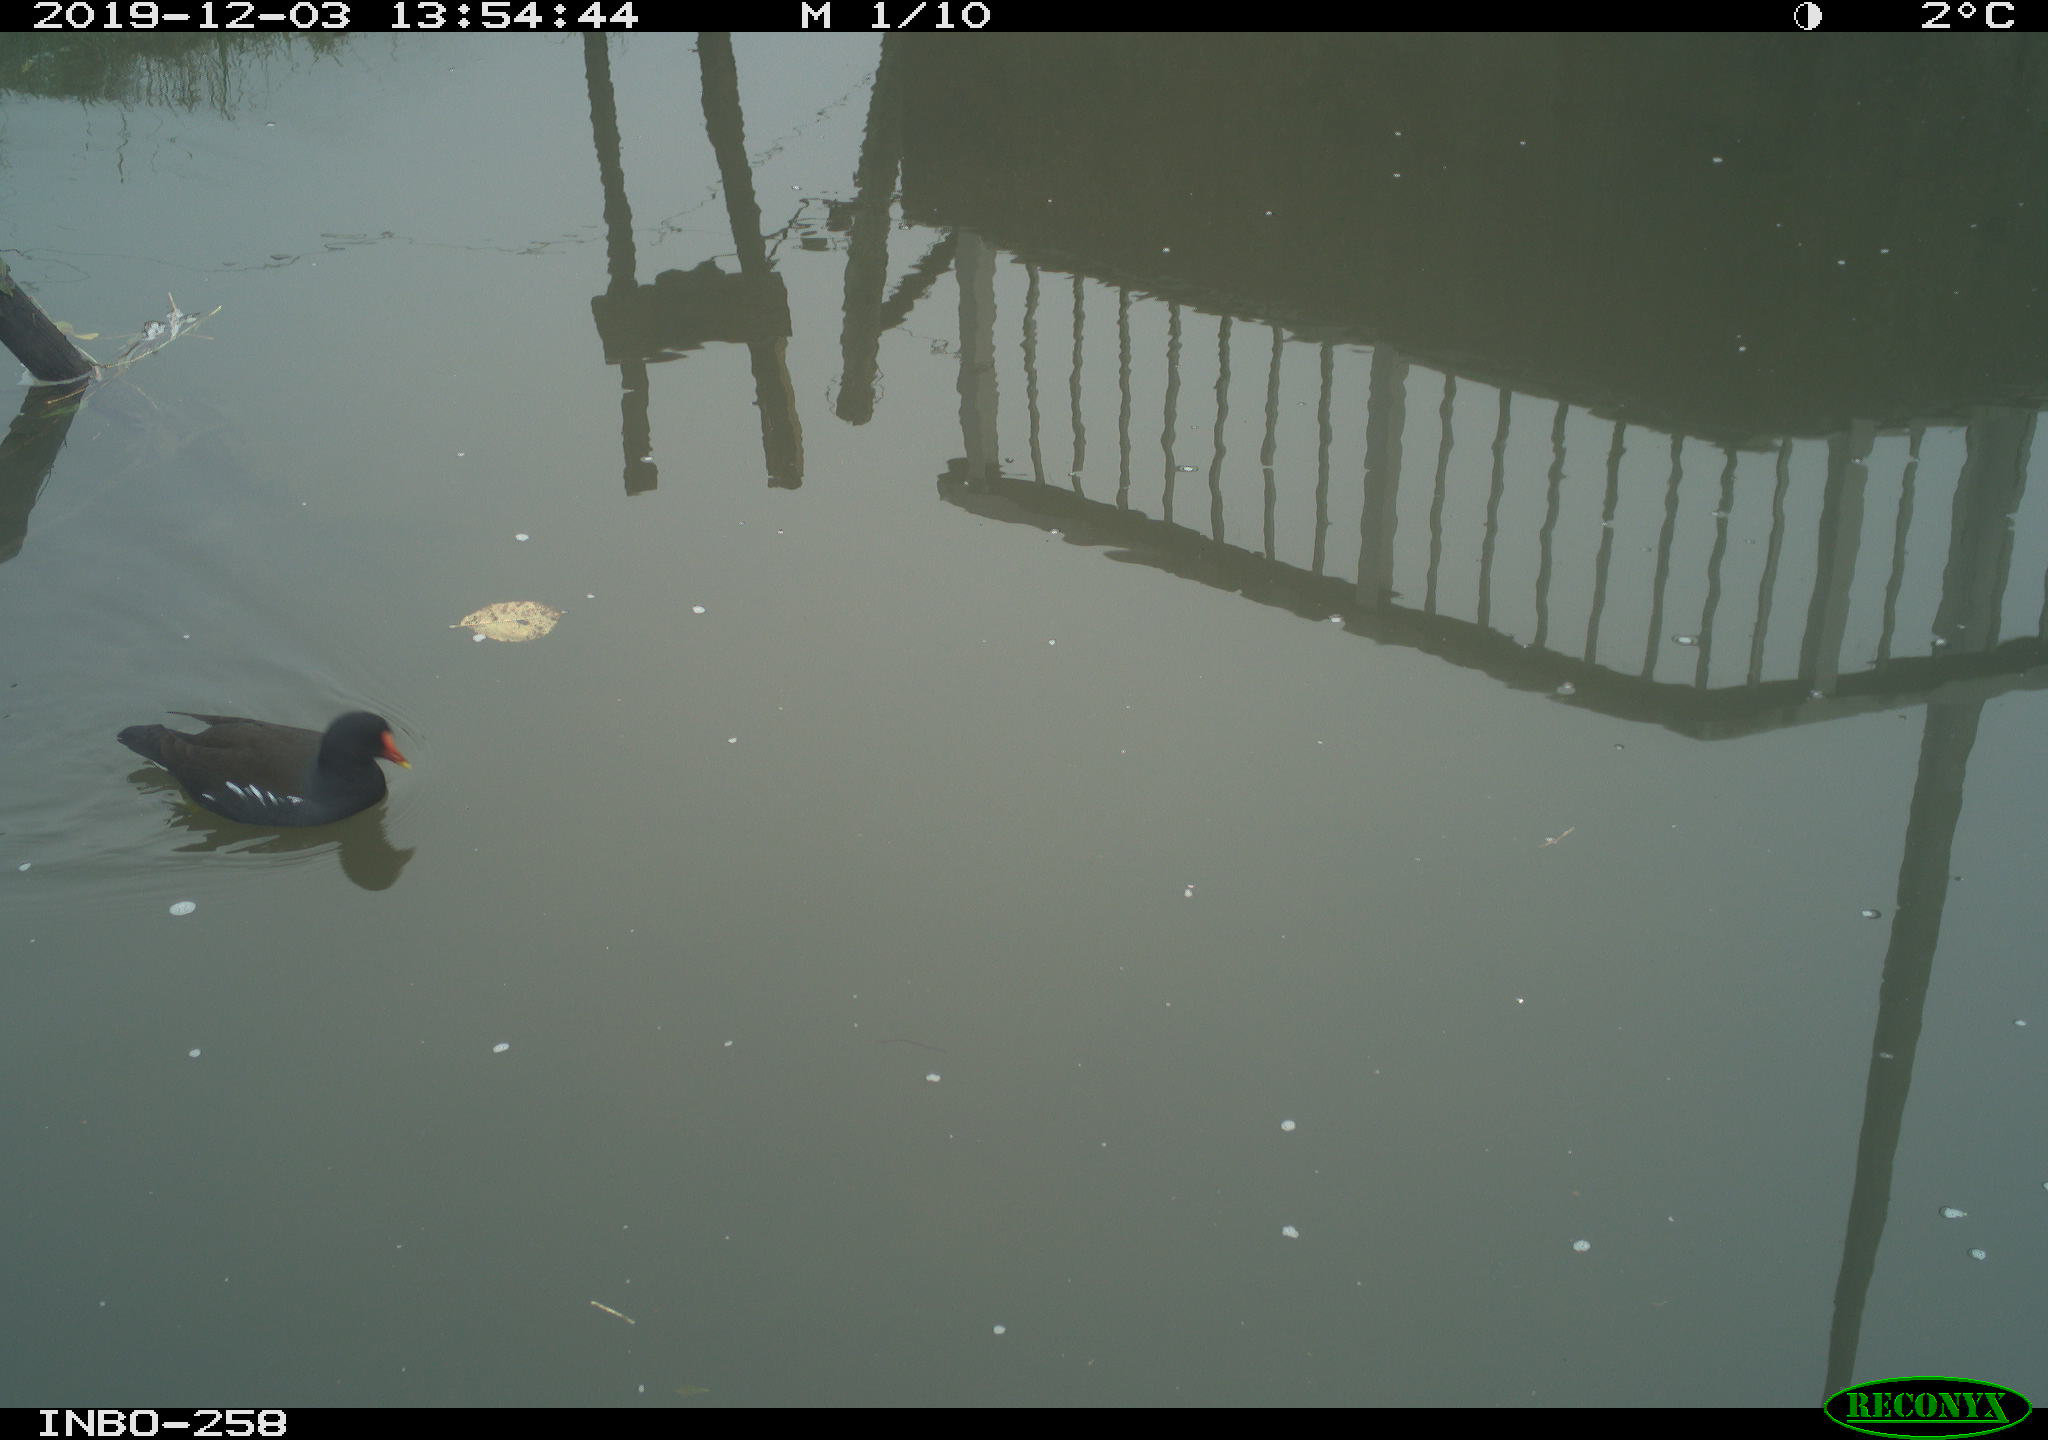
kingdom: Animalia
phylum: Chordata
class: Aves
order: Gruiformes
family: Rallidae
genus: Gallinula
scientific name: Gallinula chloropus
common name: Common moorhen
